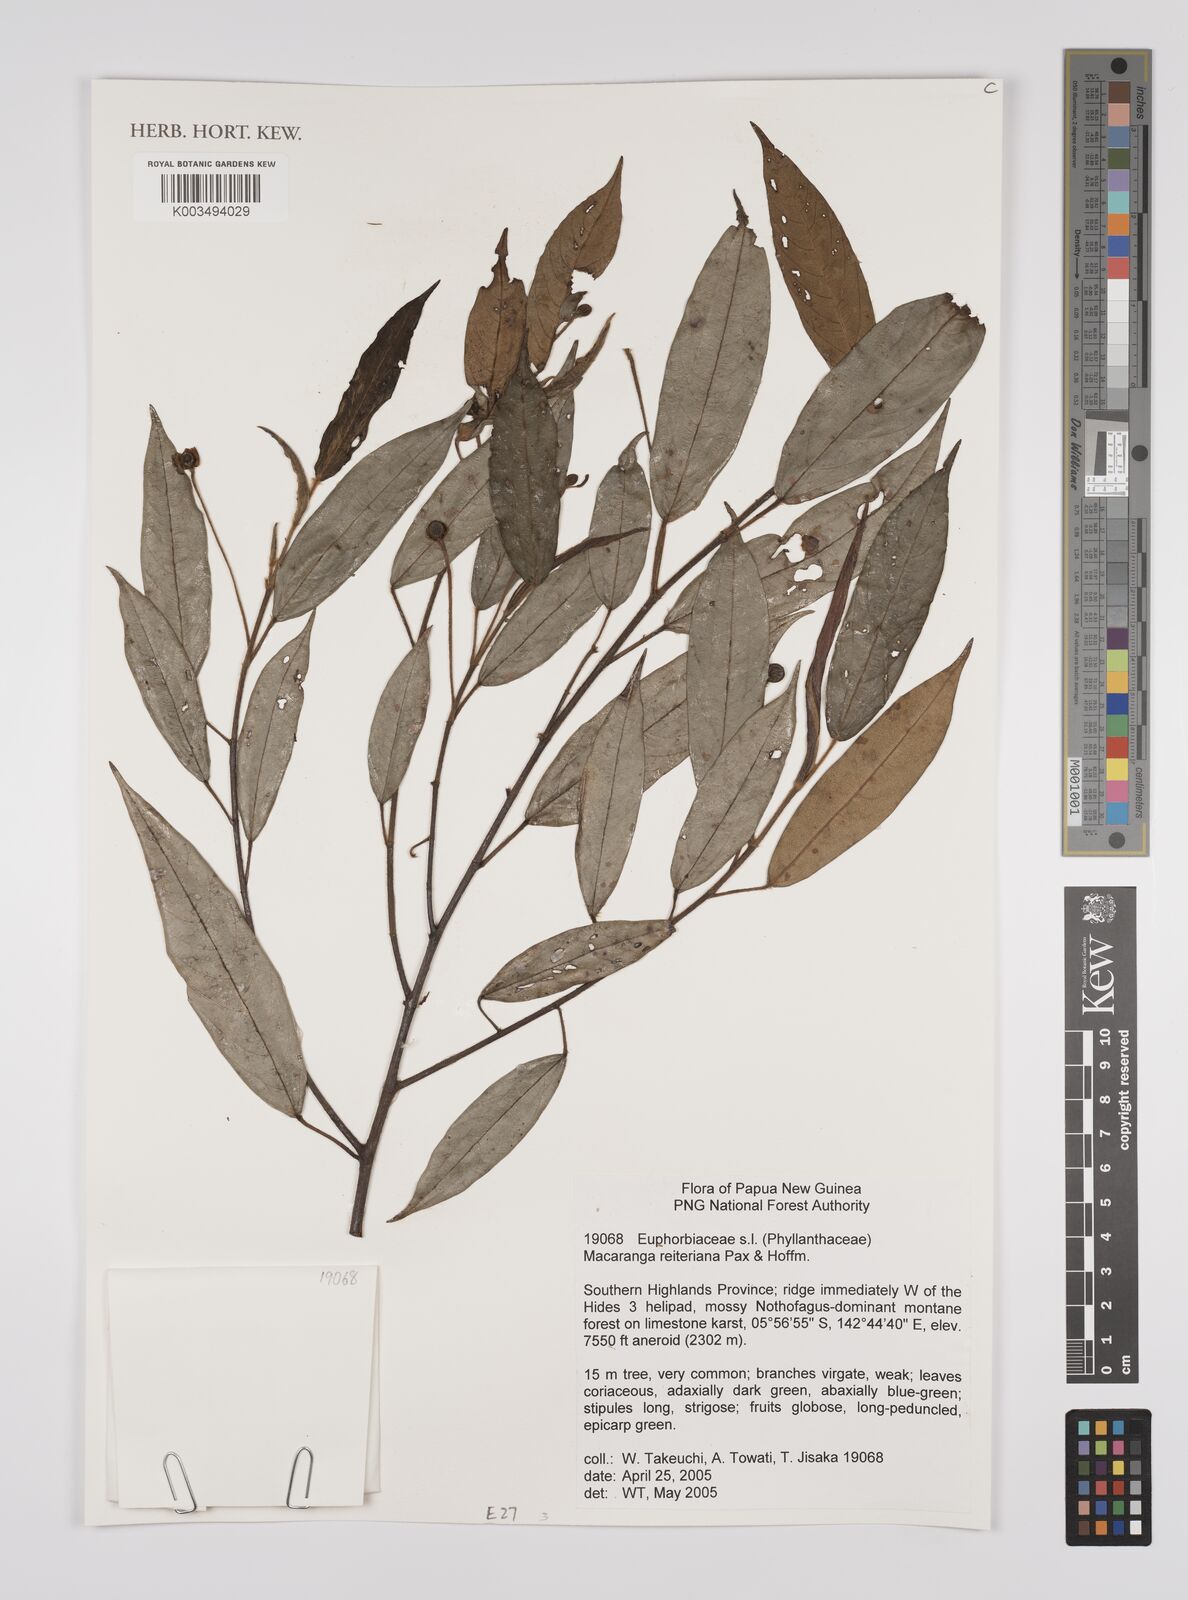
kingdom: Plantae
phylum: Tracheophyta
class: Magnoliopsida
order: Malpighiales
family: Euphorbiaceae
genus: Macaranga
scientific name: Macaranga reiteriana
